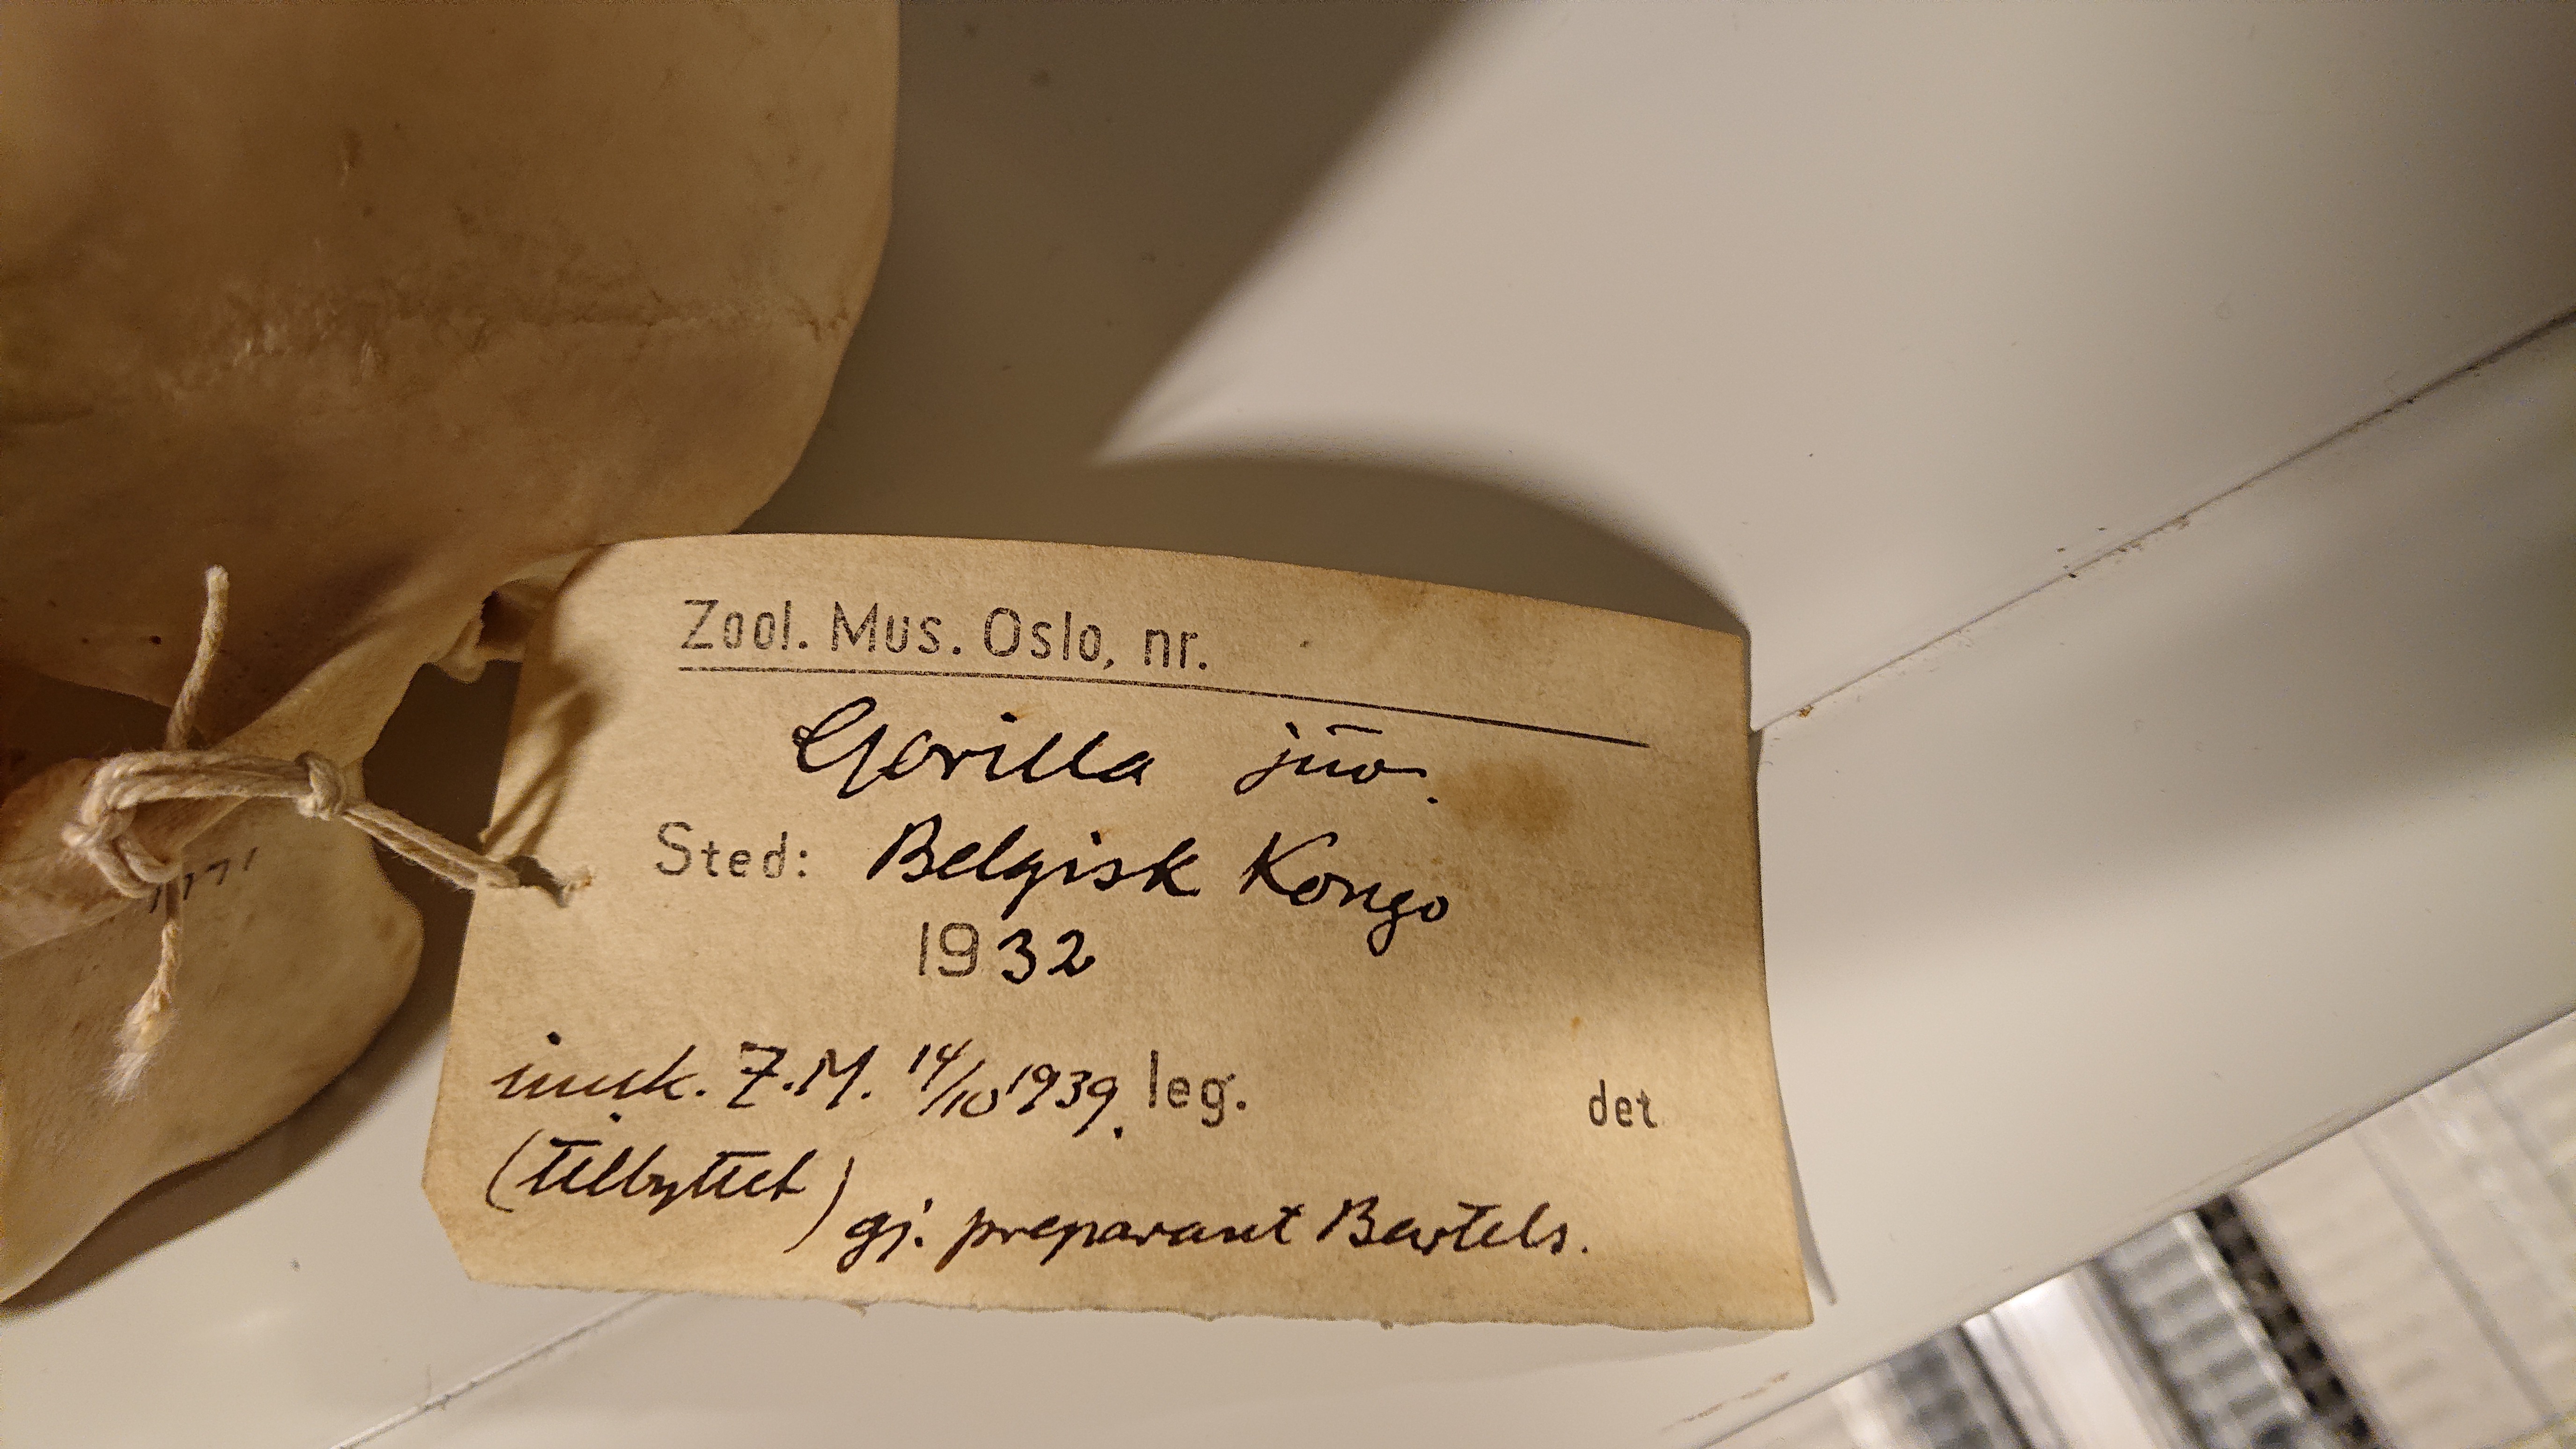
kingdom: Animalia
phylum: Chordata
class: Mammalia
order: Primates
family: Hominidae
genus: Gorilla
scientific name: Gorilla
